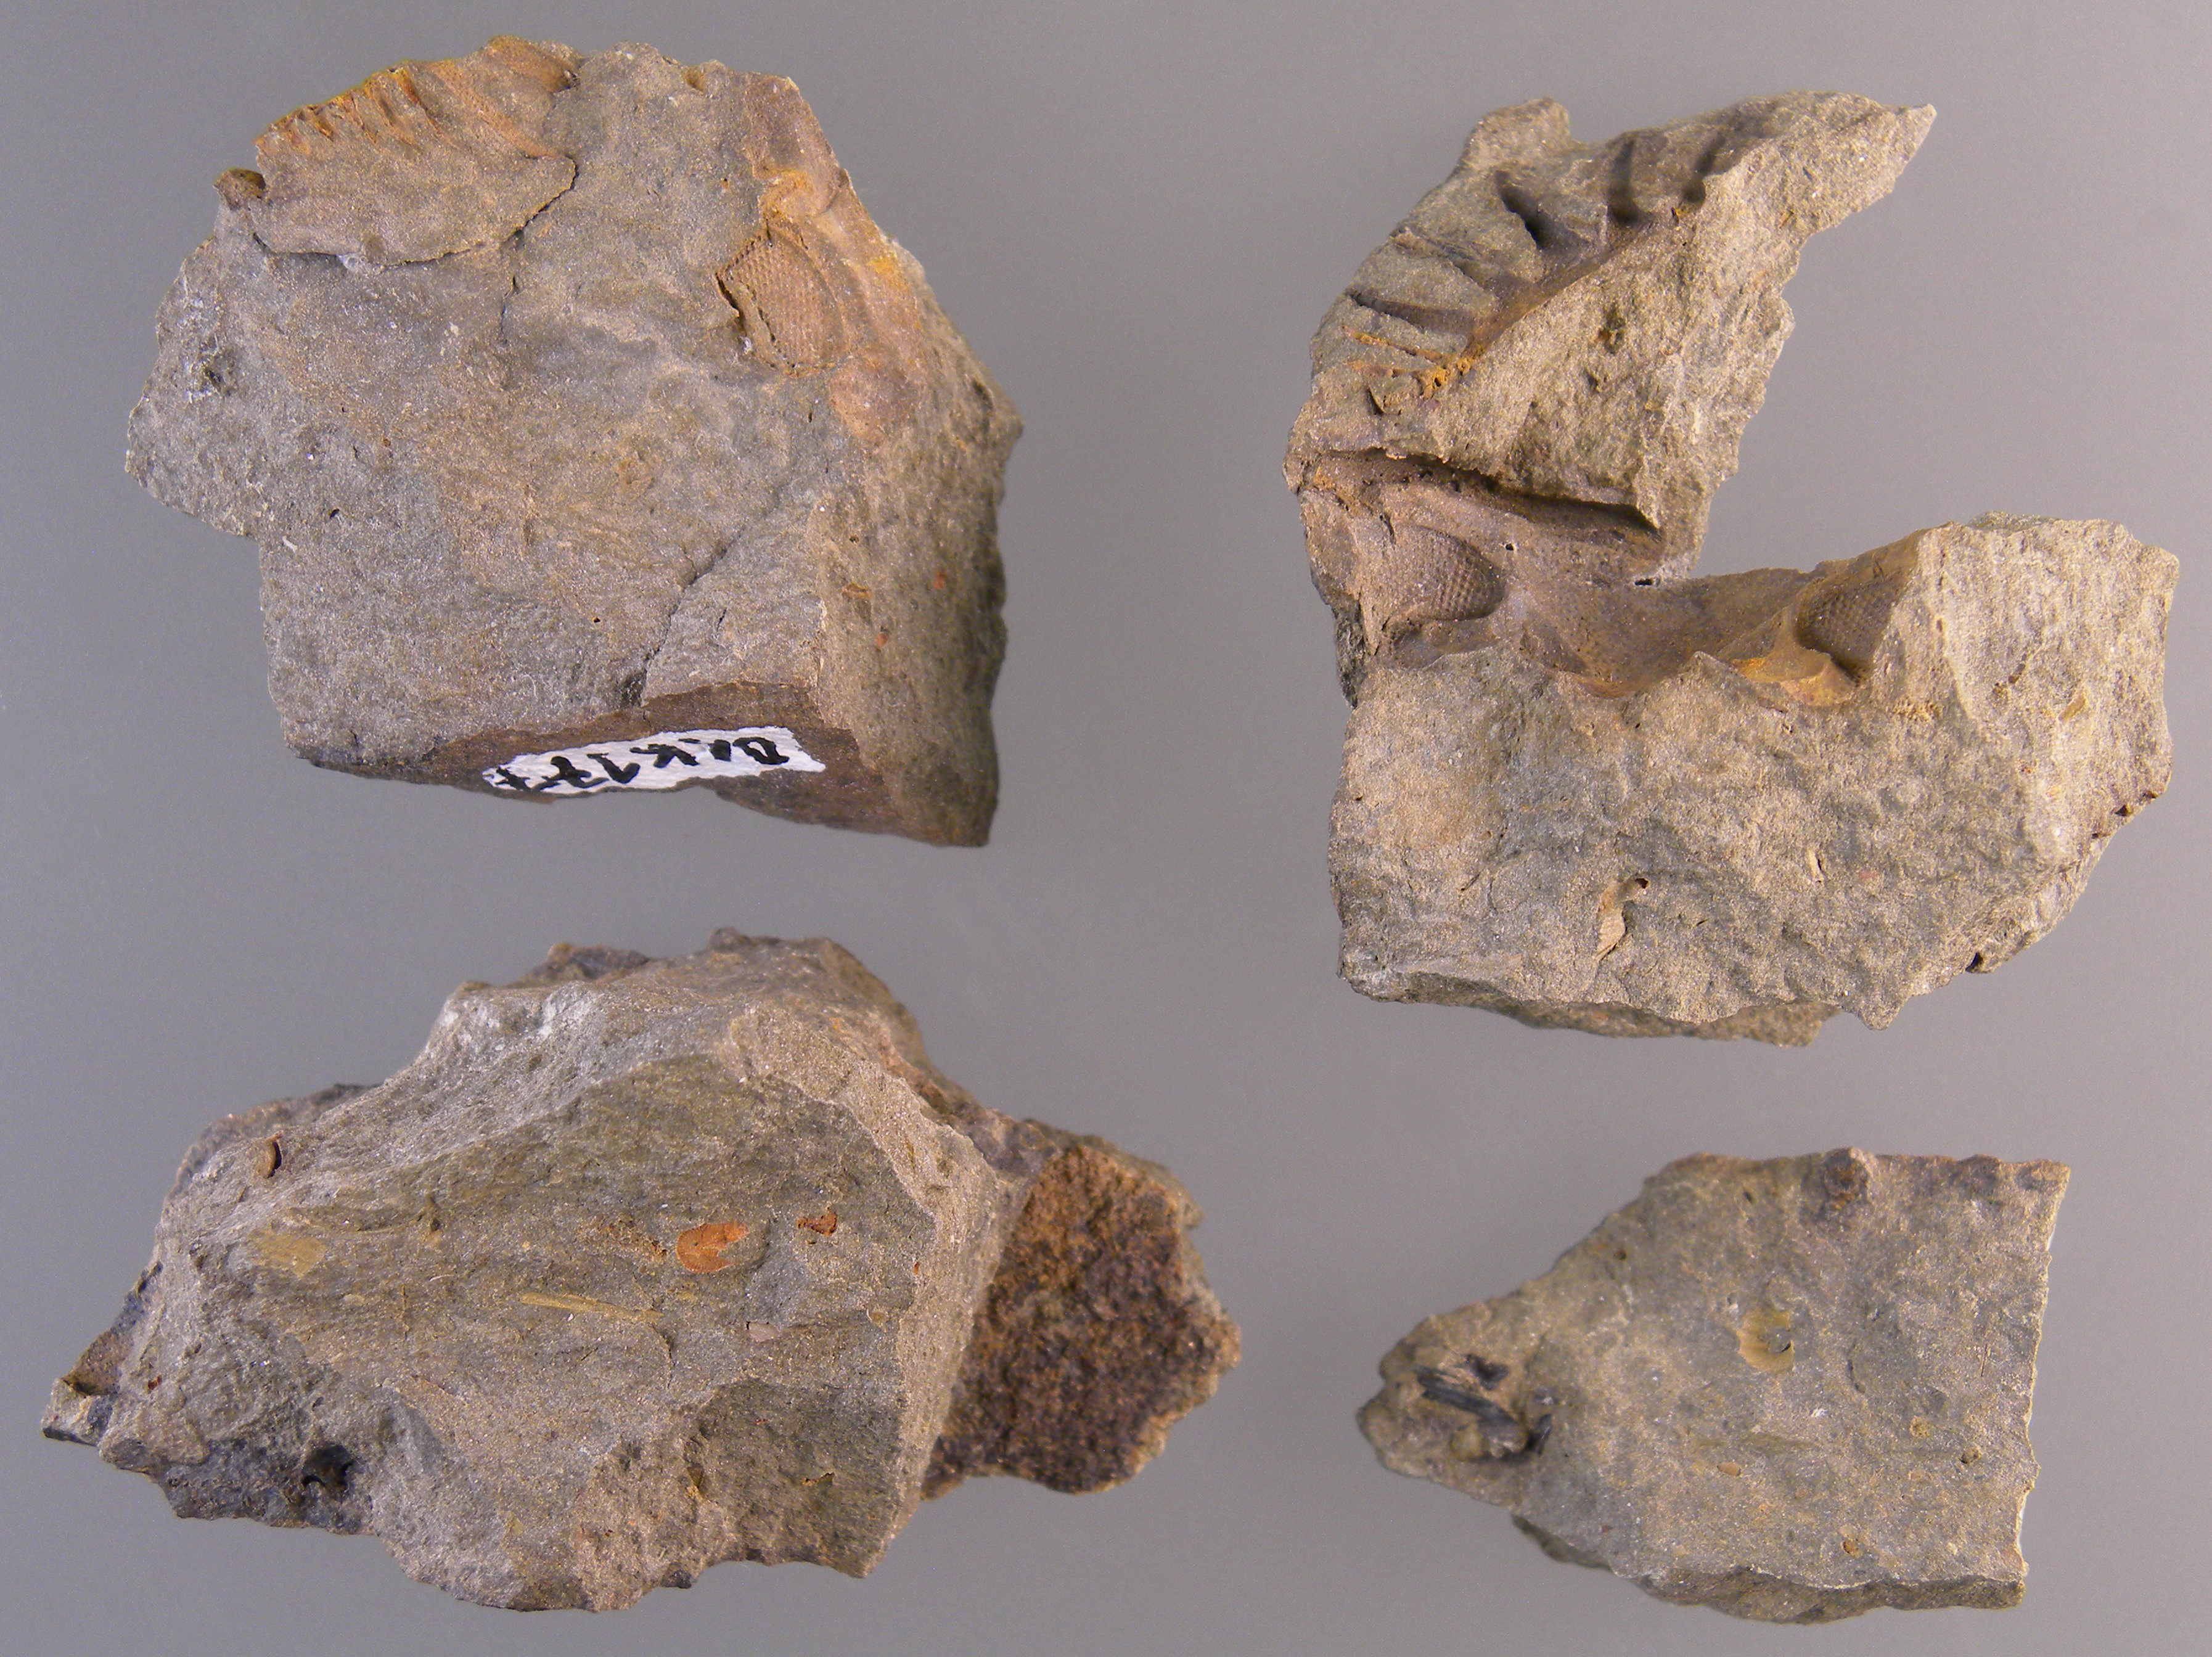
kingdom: Animalia
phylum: Arthropoda
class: Trilobita
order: Phacopida
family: Acastidae
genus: Kayserops
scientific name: Kayserops daleidensis
